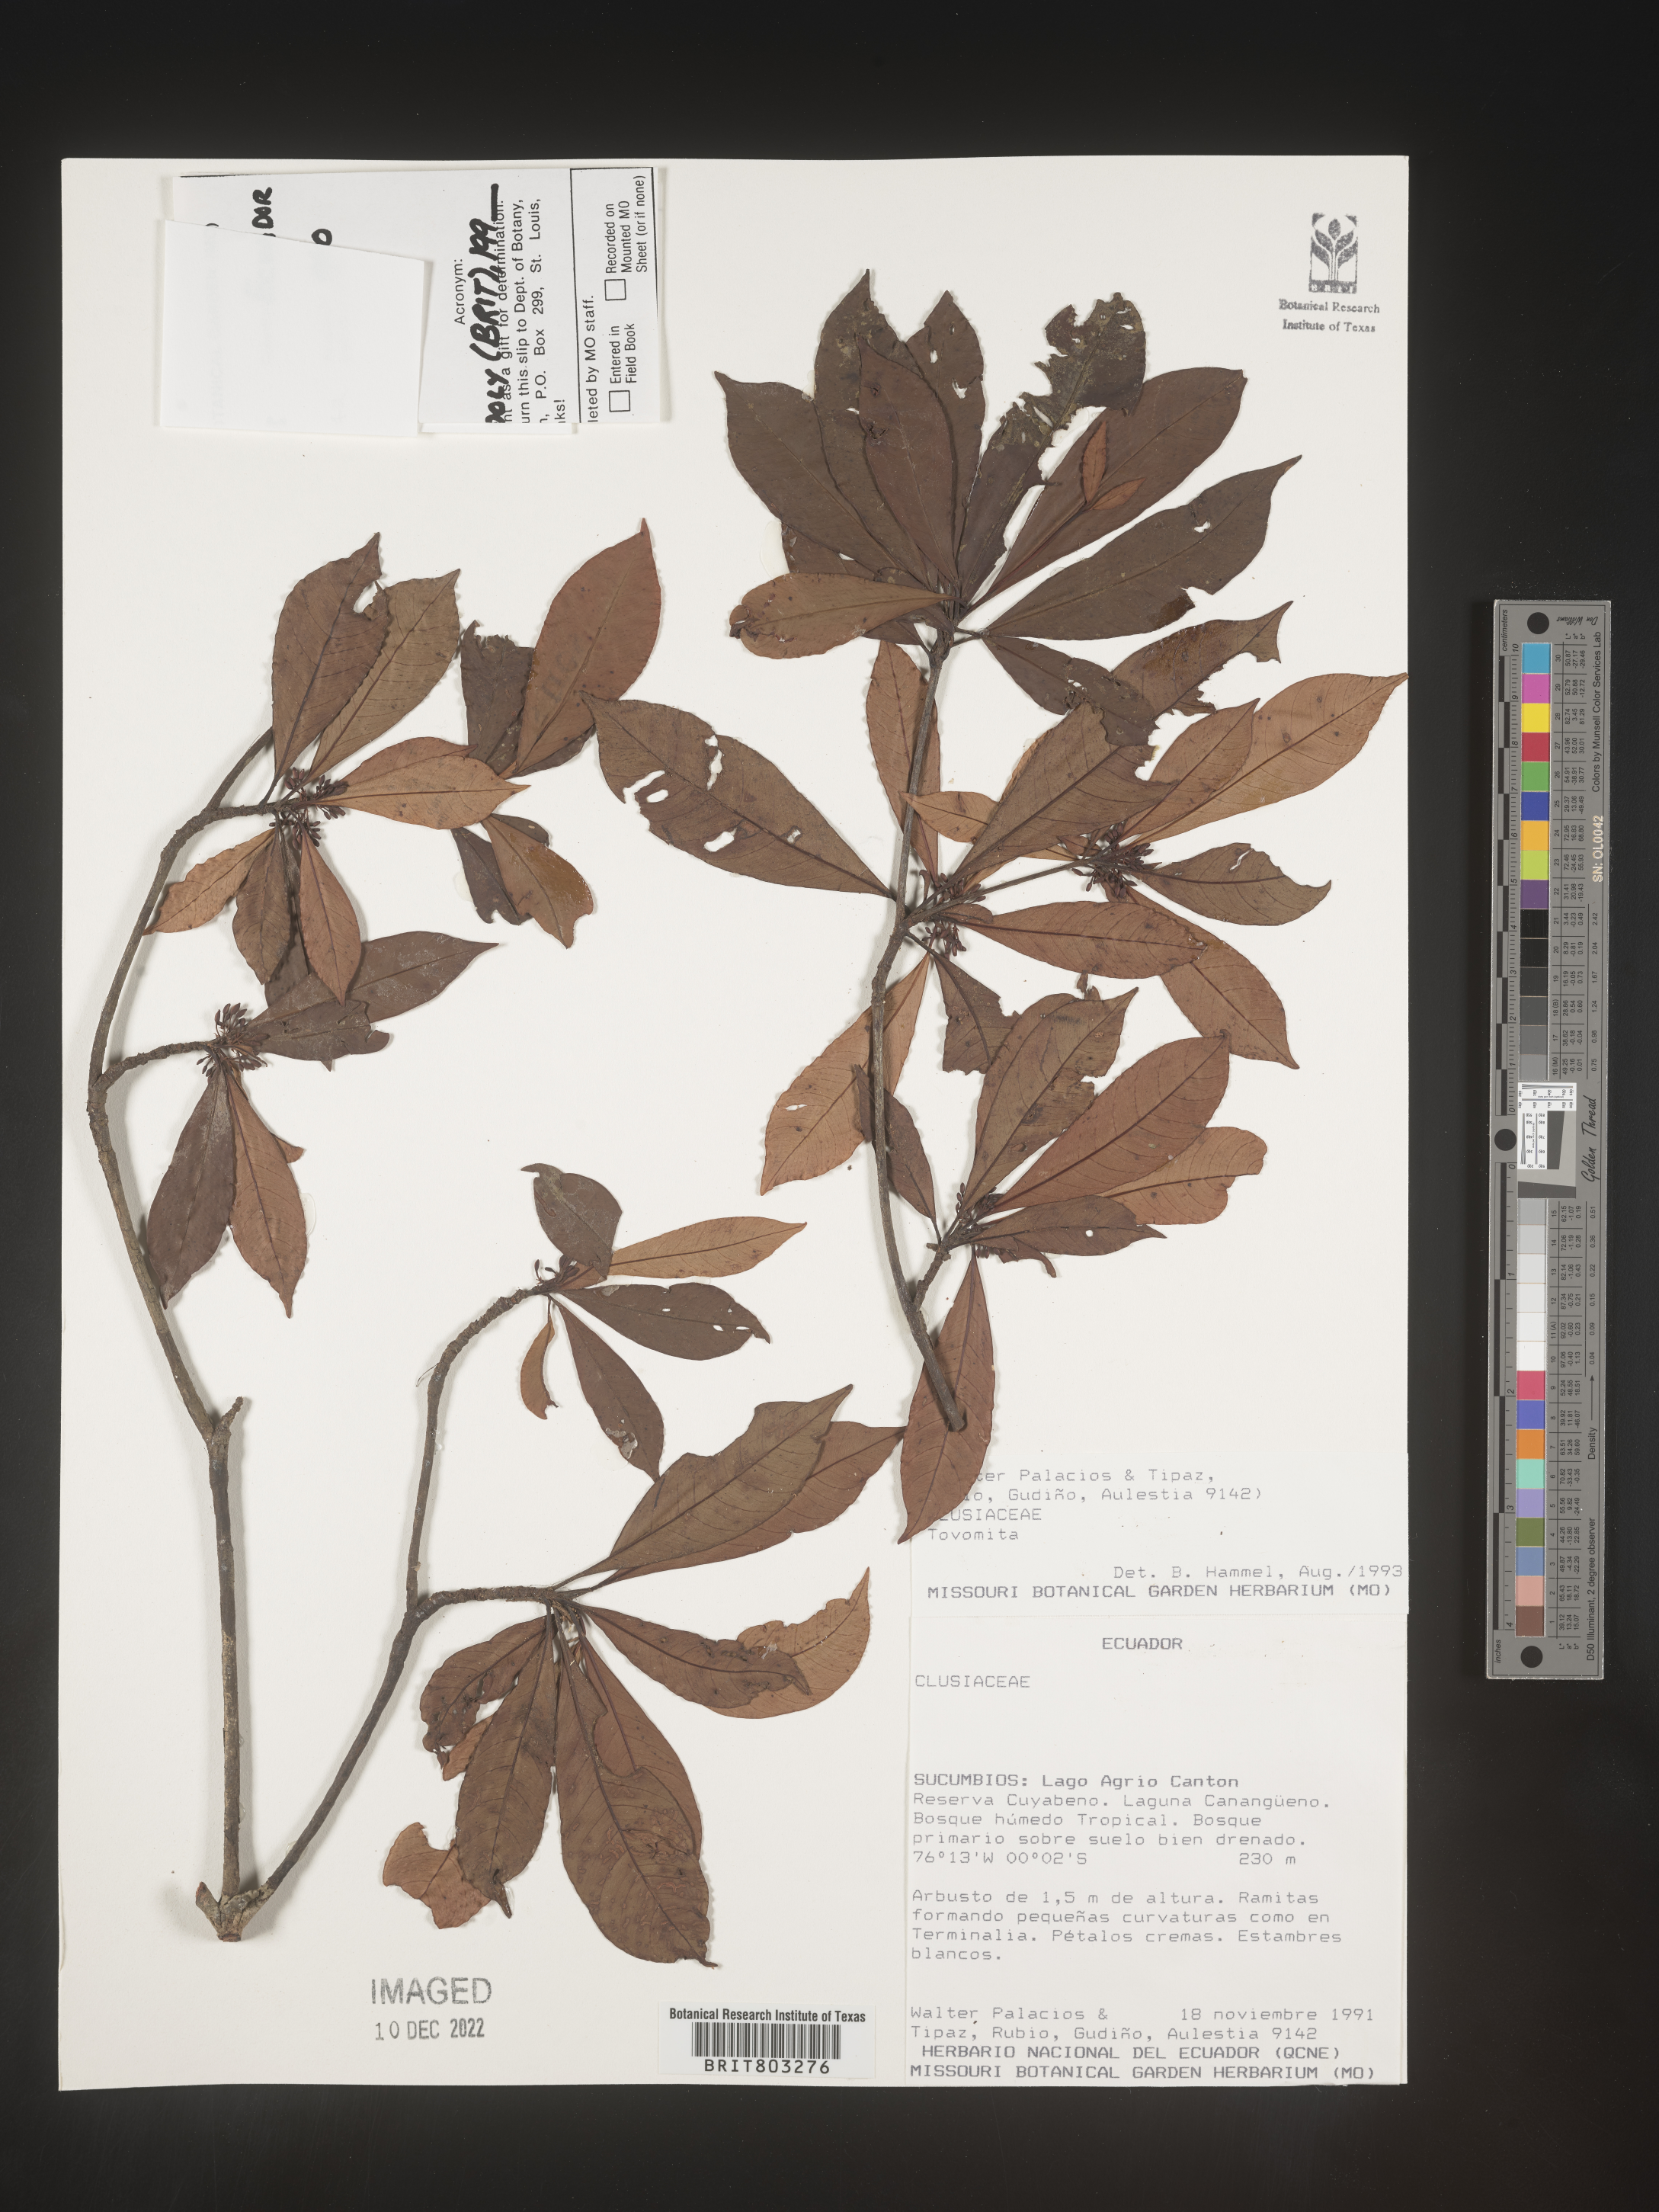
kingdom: Plantae
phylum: Tracheophyta
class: Magnoliopsida
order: Malpighiales
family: Clusiaceae
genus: Tovomita
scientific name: Tovomita
